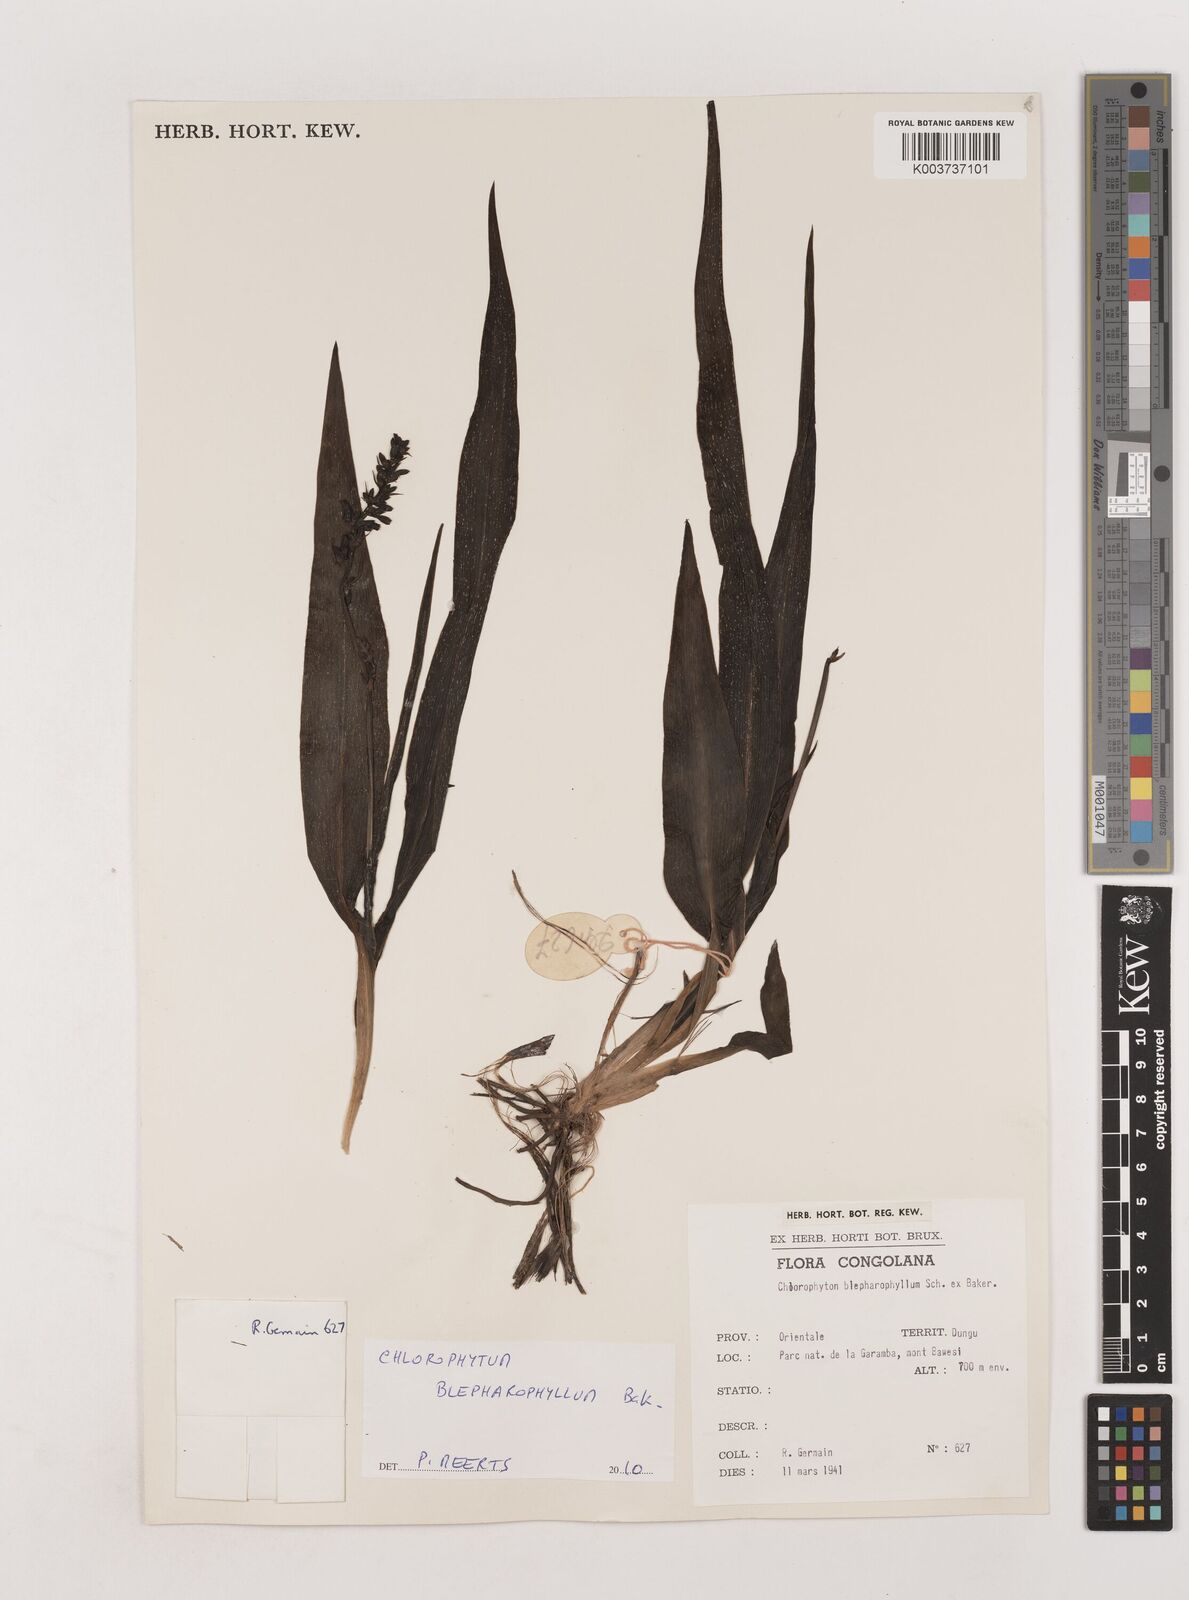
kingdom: Plantae
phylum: Tracheophyta
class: Liliopsida
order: Asparagales
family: Asparagaceae
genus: Chlorophytum
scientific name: Chlorophytum blepharophyllum
